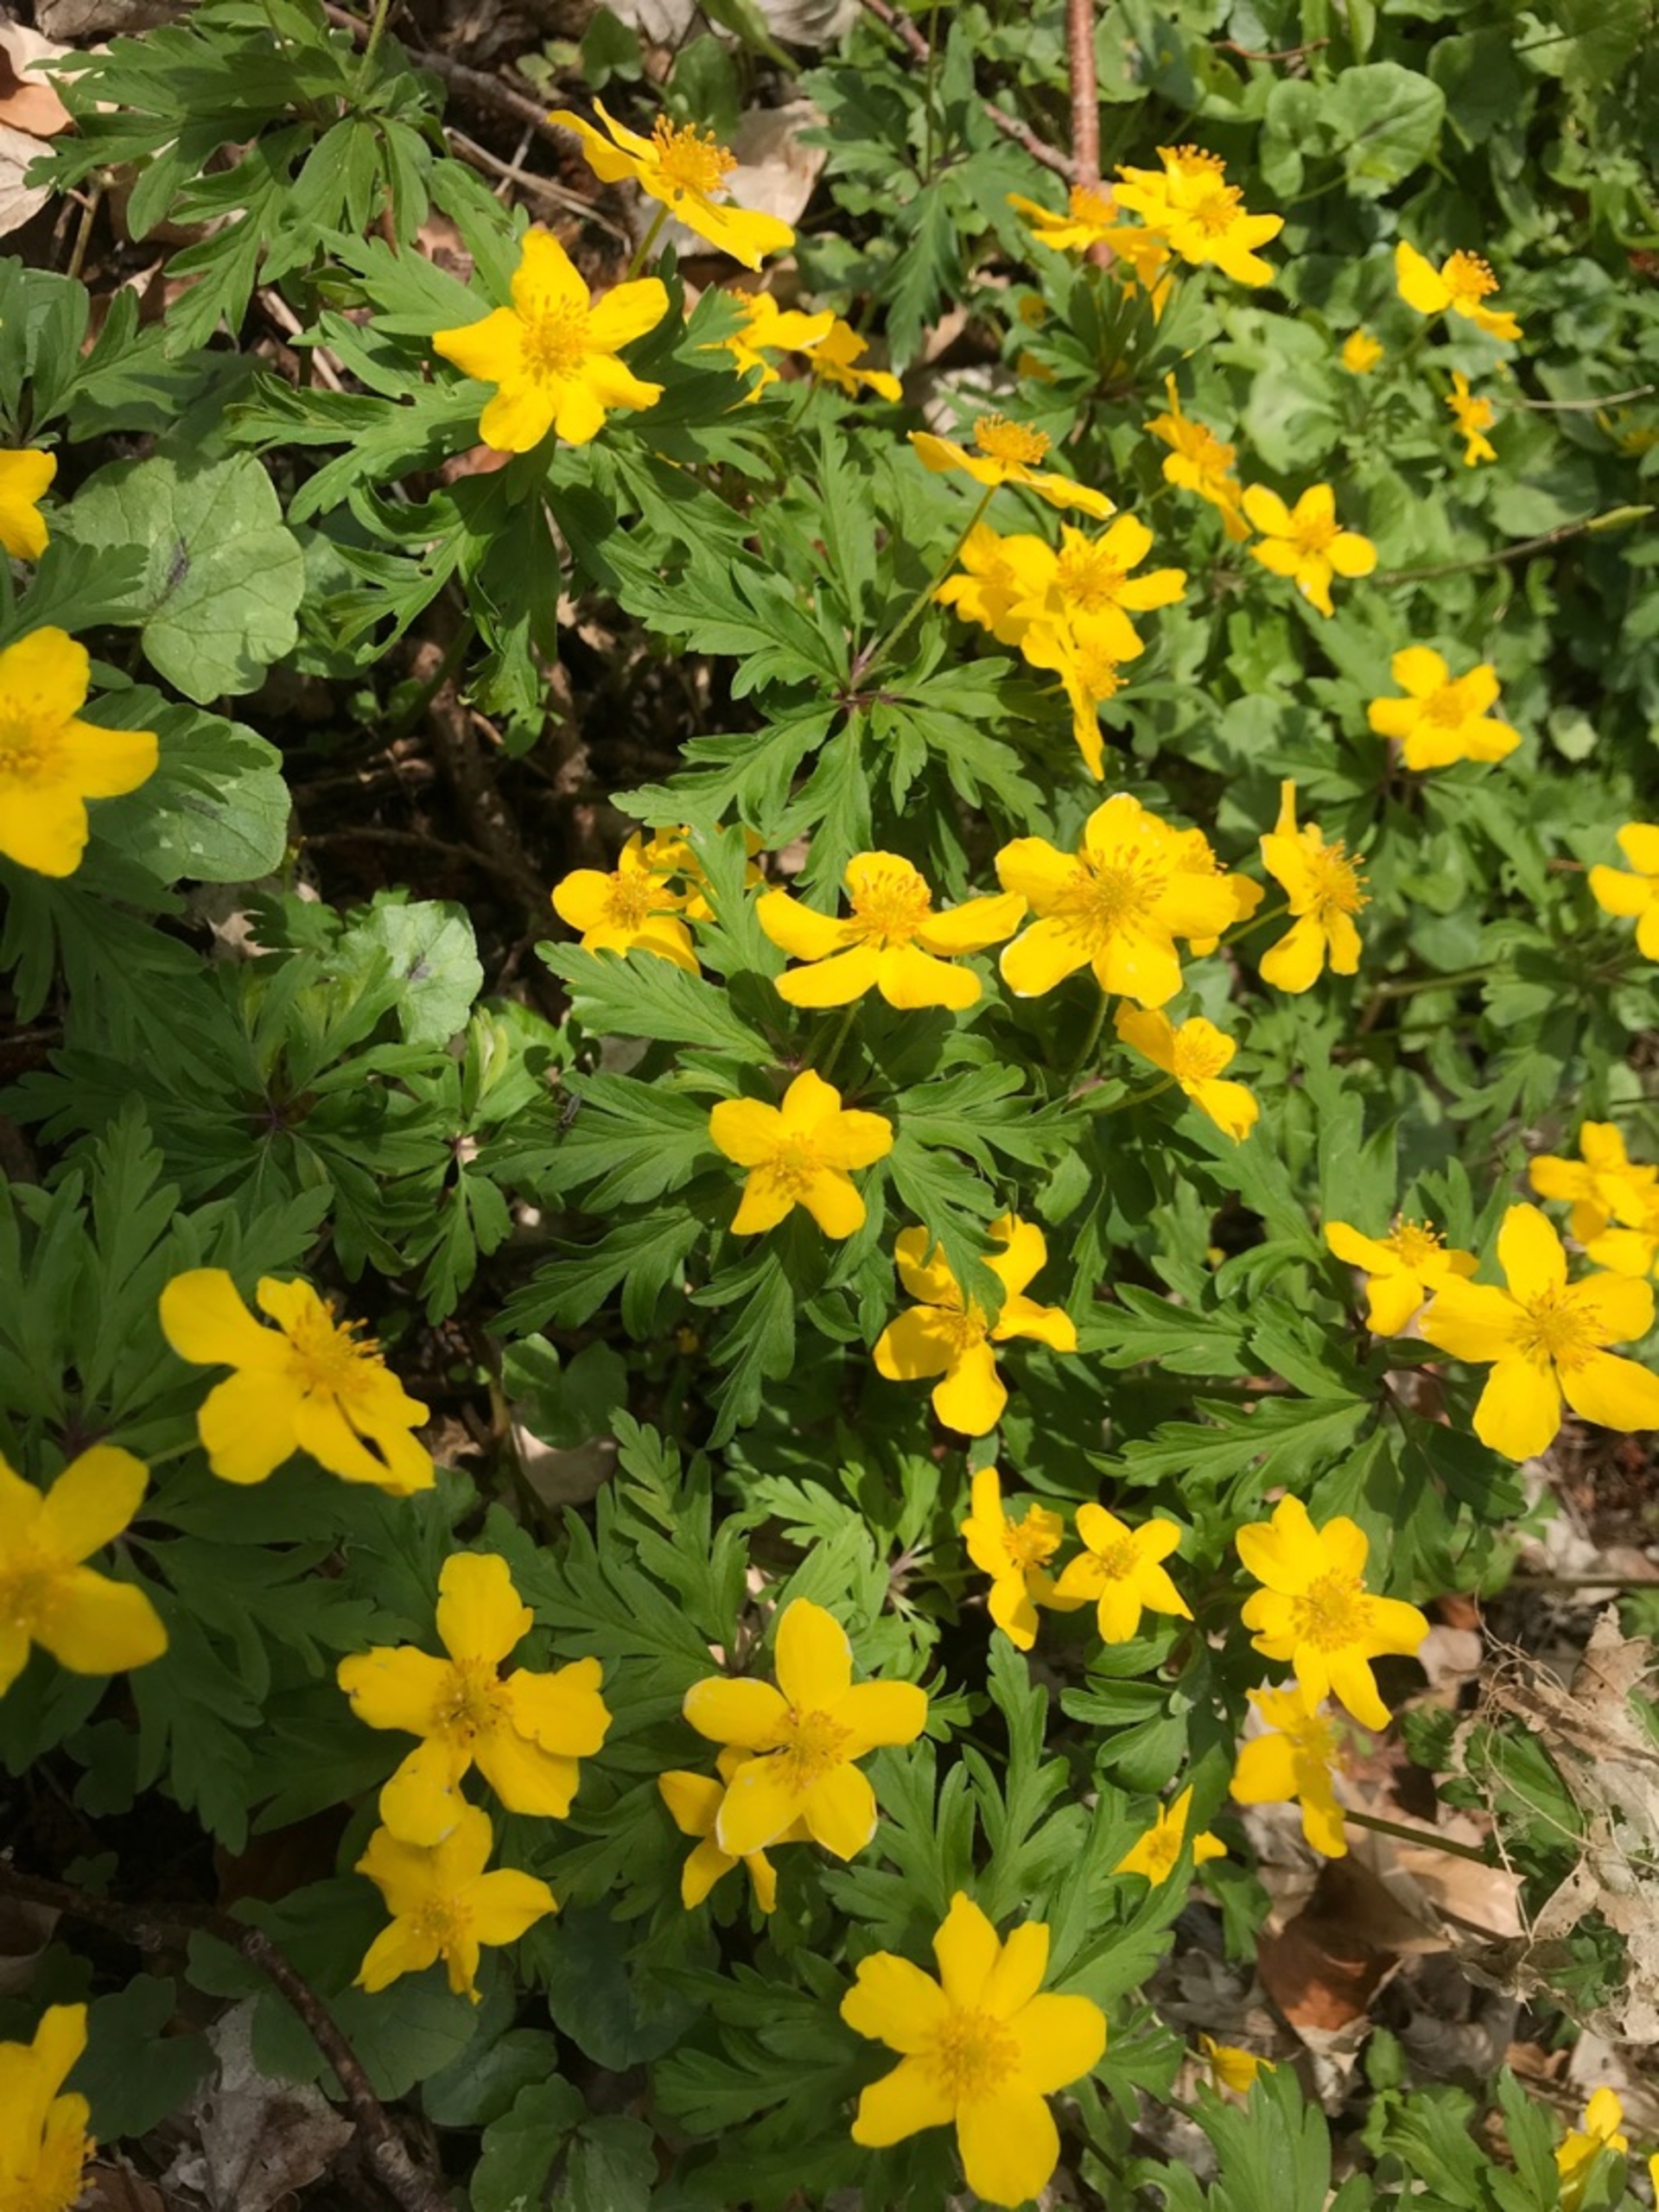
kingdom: Plantae
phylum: Tracheophyta
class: Magnoliopsida
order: Ranunculales
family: Ranunculaceae
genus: Anemone
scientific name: Anemone ranunculoides
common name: Gul anemone
